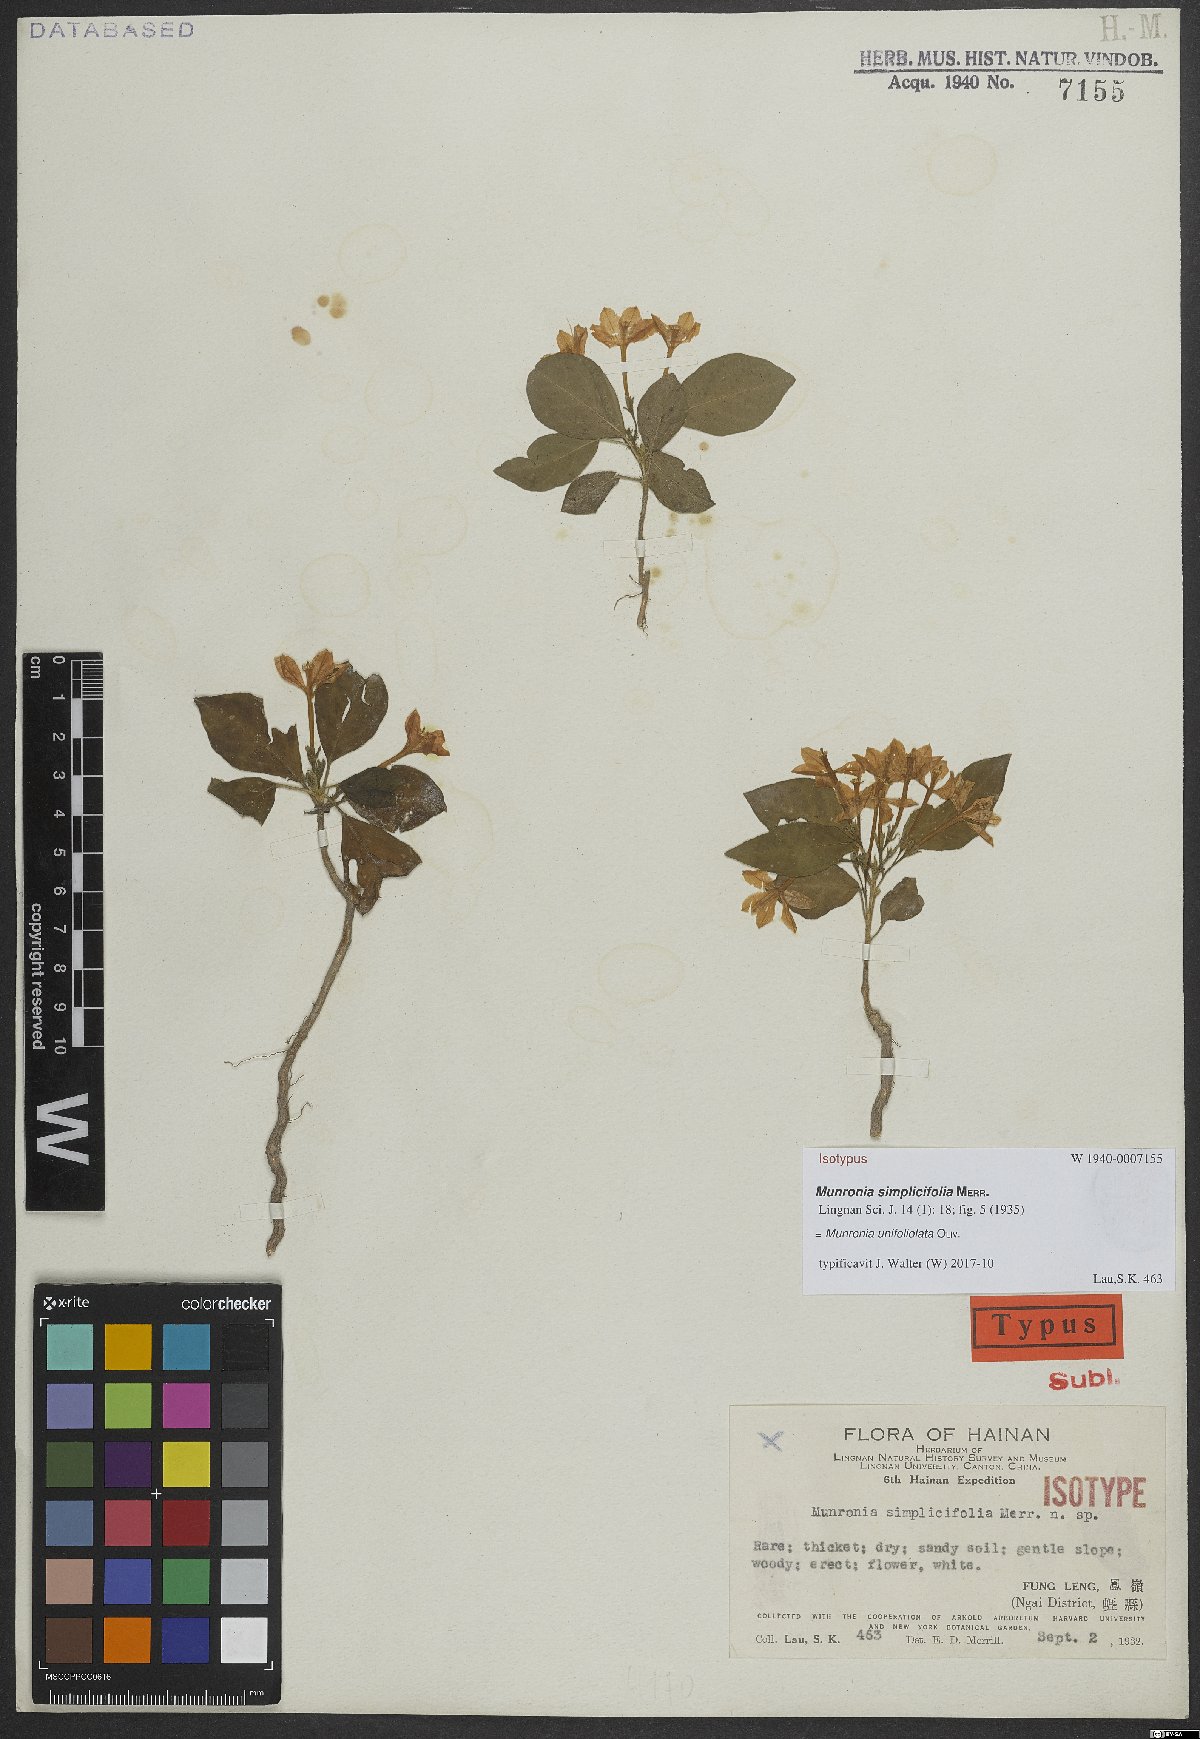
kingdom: Plantae
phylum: Tracheophyta
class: Magnoliopsida
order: Sapindales
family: Meliaceae
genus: Munronia
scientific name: Munronia unifoliolata
